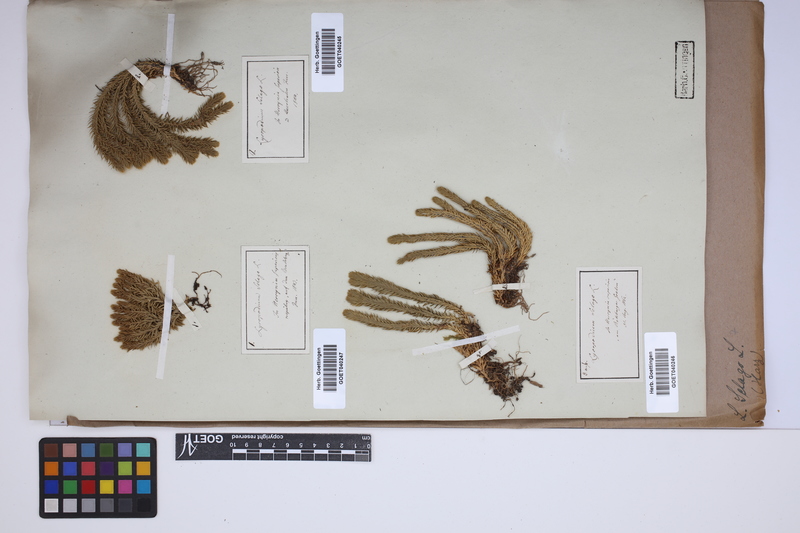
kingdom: Plantae
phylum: Tracheophyta
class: Lycopodiopsida
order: Lycopodiales
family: Lycopodiaceae
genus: Huperzia
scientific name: Huperzia selago
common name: Northern firmoss
